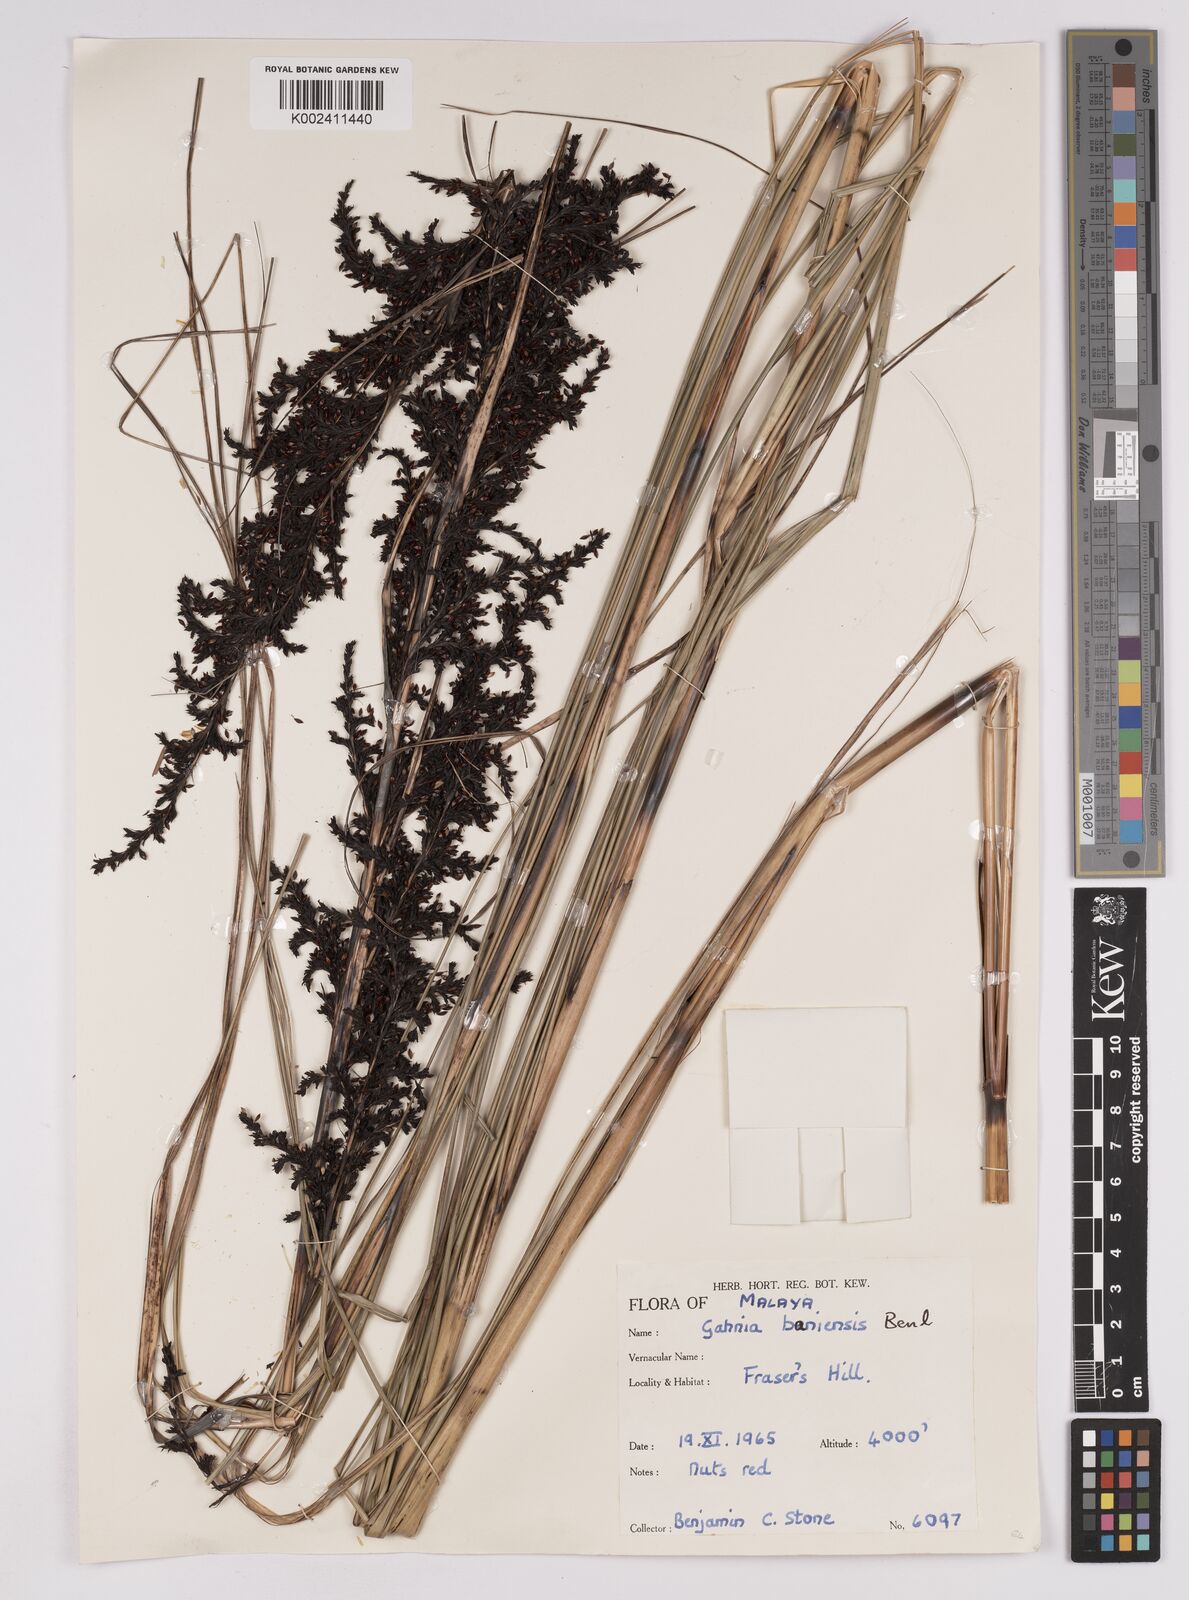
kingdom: Plantae
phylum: Tracheophyta
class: Liliopsida
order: Poales
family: Cyperaceae
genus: Gahnia
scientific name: Gahnia baniensis
